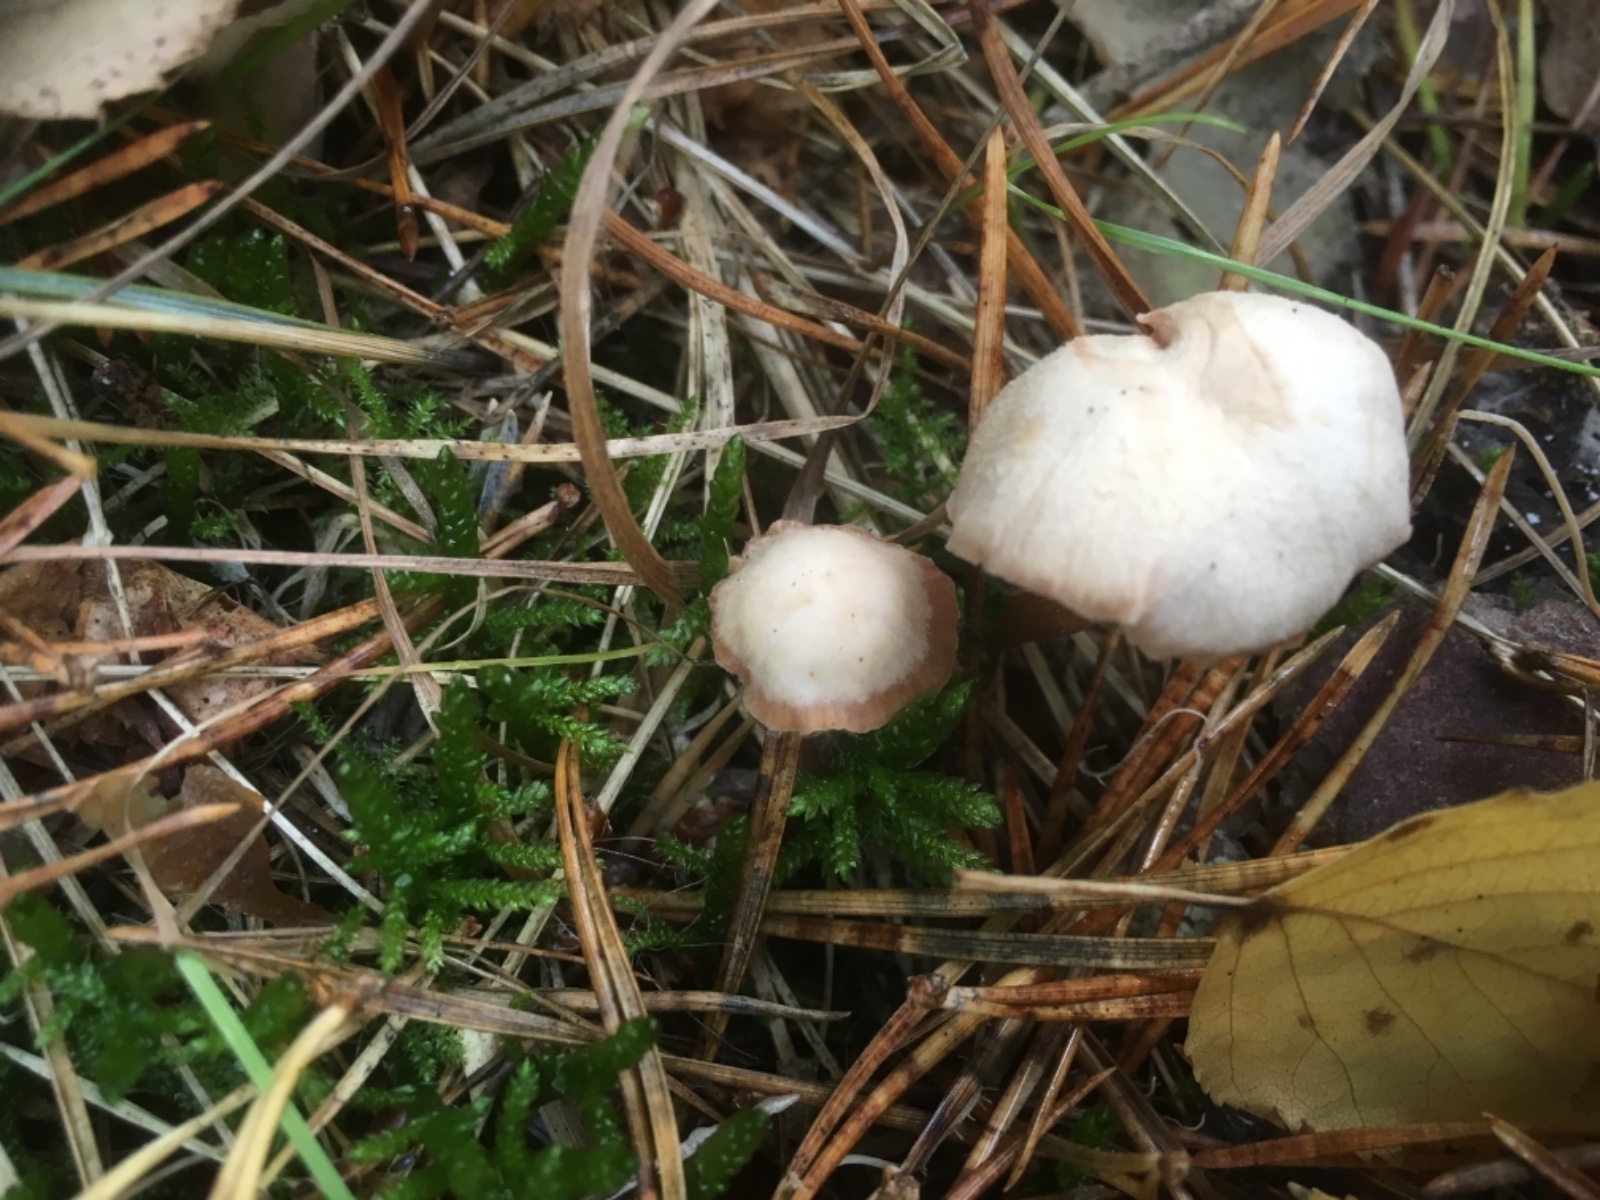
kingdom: Fungi
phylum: Basidiomycota
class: Agaricomycetes
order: Agaricales
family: Hydnangiaceae
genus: Laccaria
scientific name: Laccaria laccata
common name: rød ametysthat
